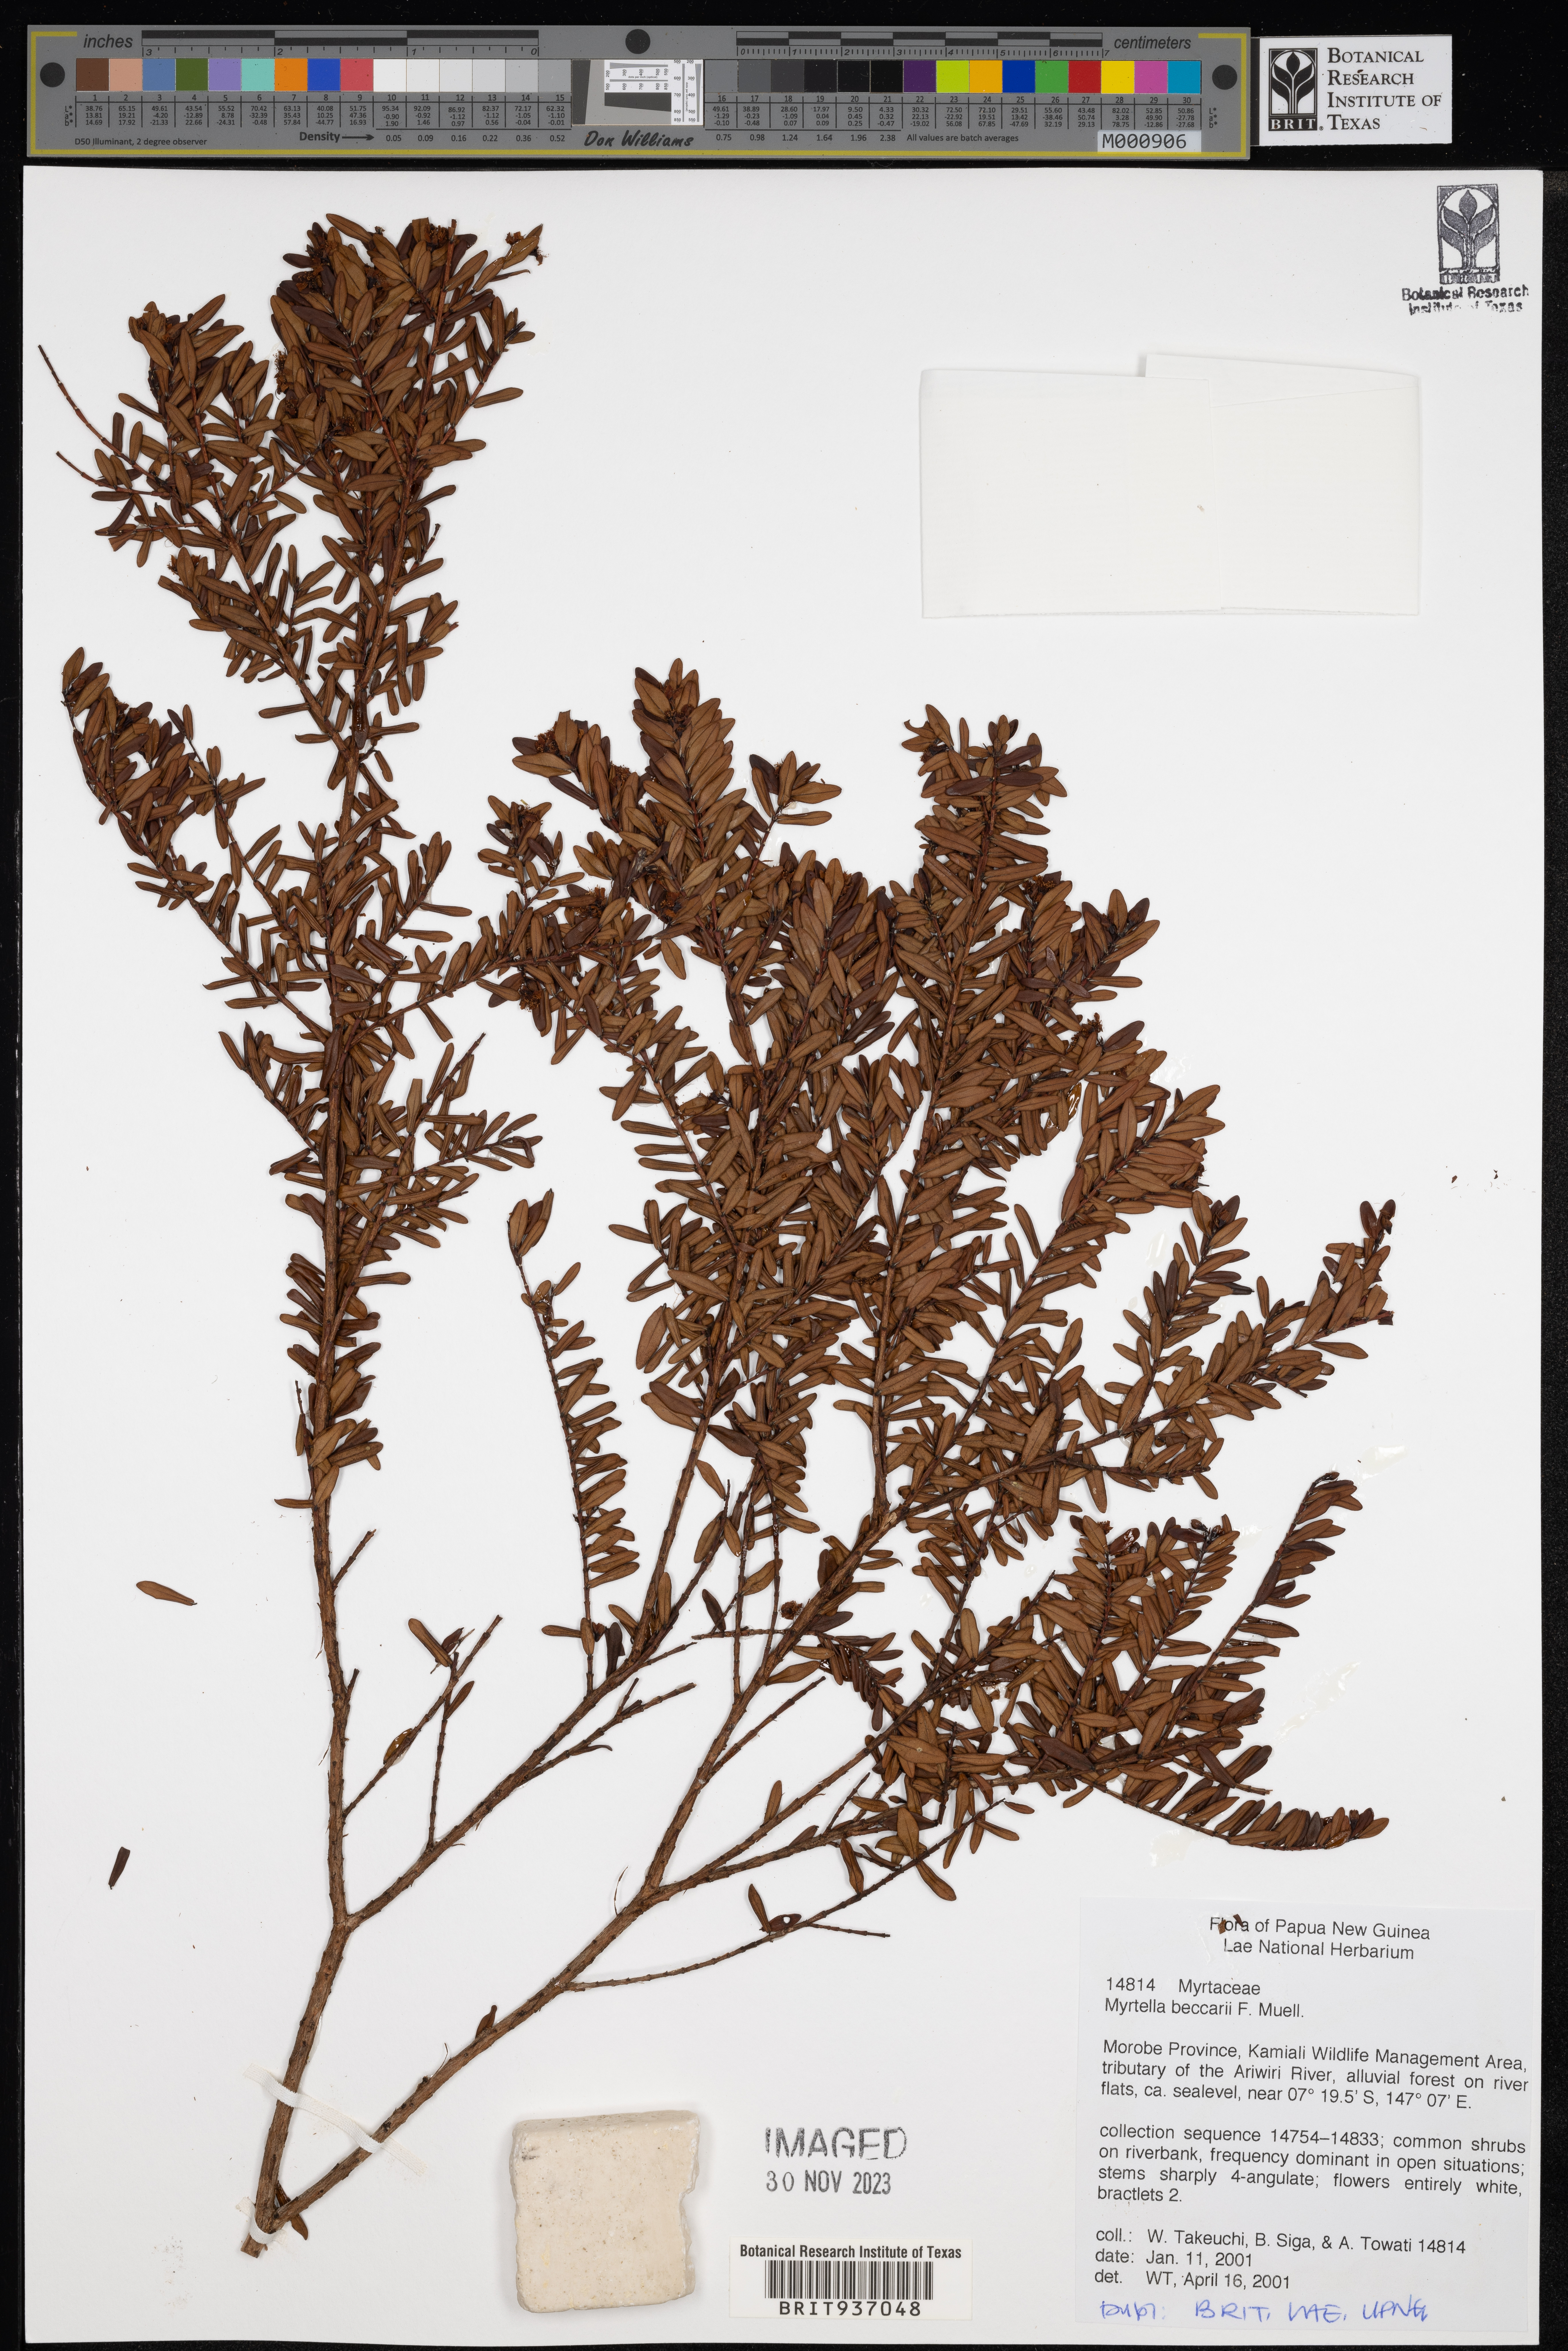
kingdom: Plantae
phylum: Tracheophyta
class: Magnoliopsida
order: Myrtales
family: Myrtaceae
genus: Myrtella
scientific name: Myrtella
